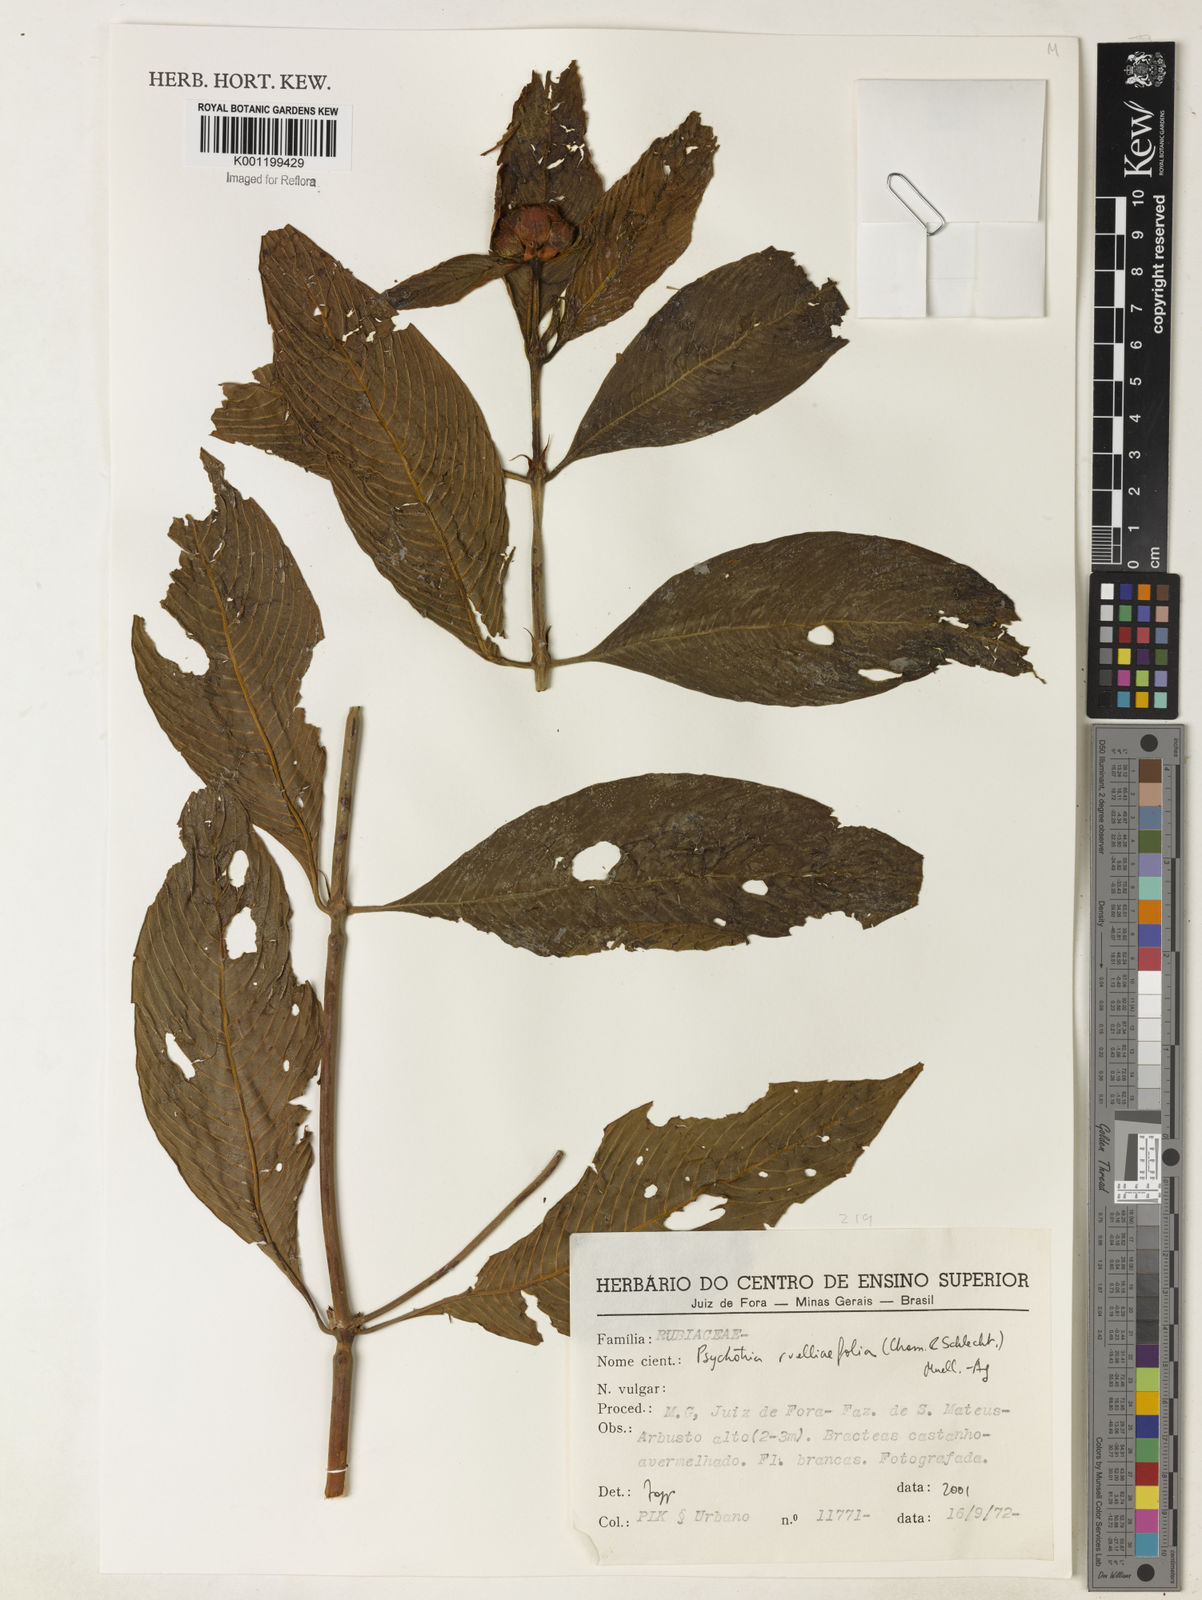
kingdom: Plantae
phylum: Tracheophyta
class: Magnoliopsida
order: Gentianales
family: Rubiaceae
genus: Psychotria
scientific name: Psychotria
